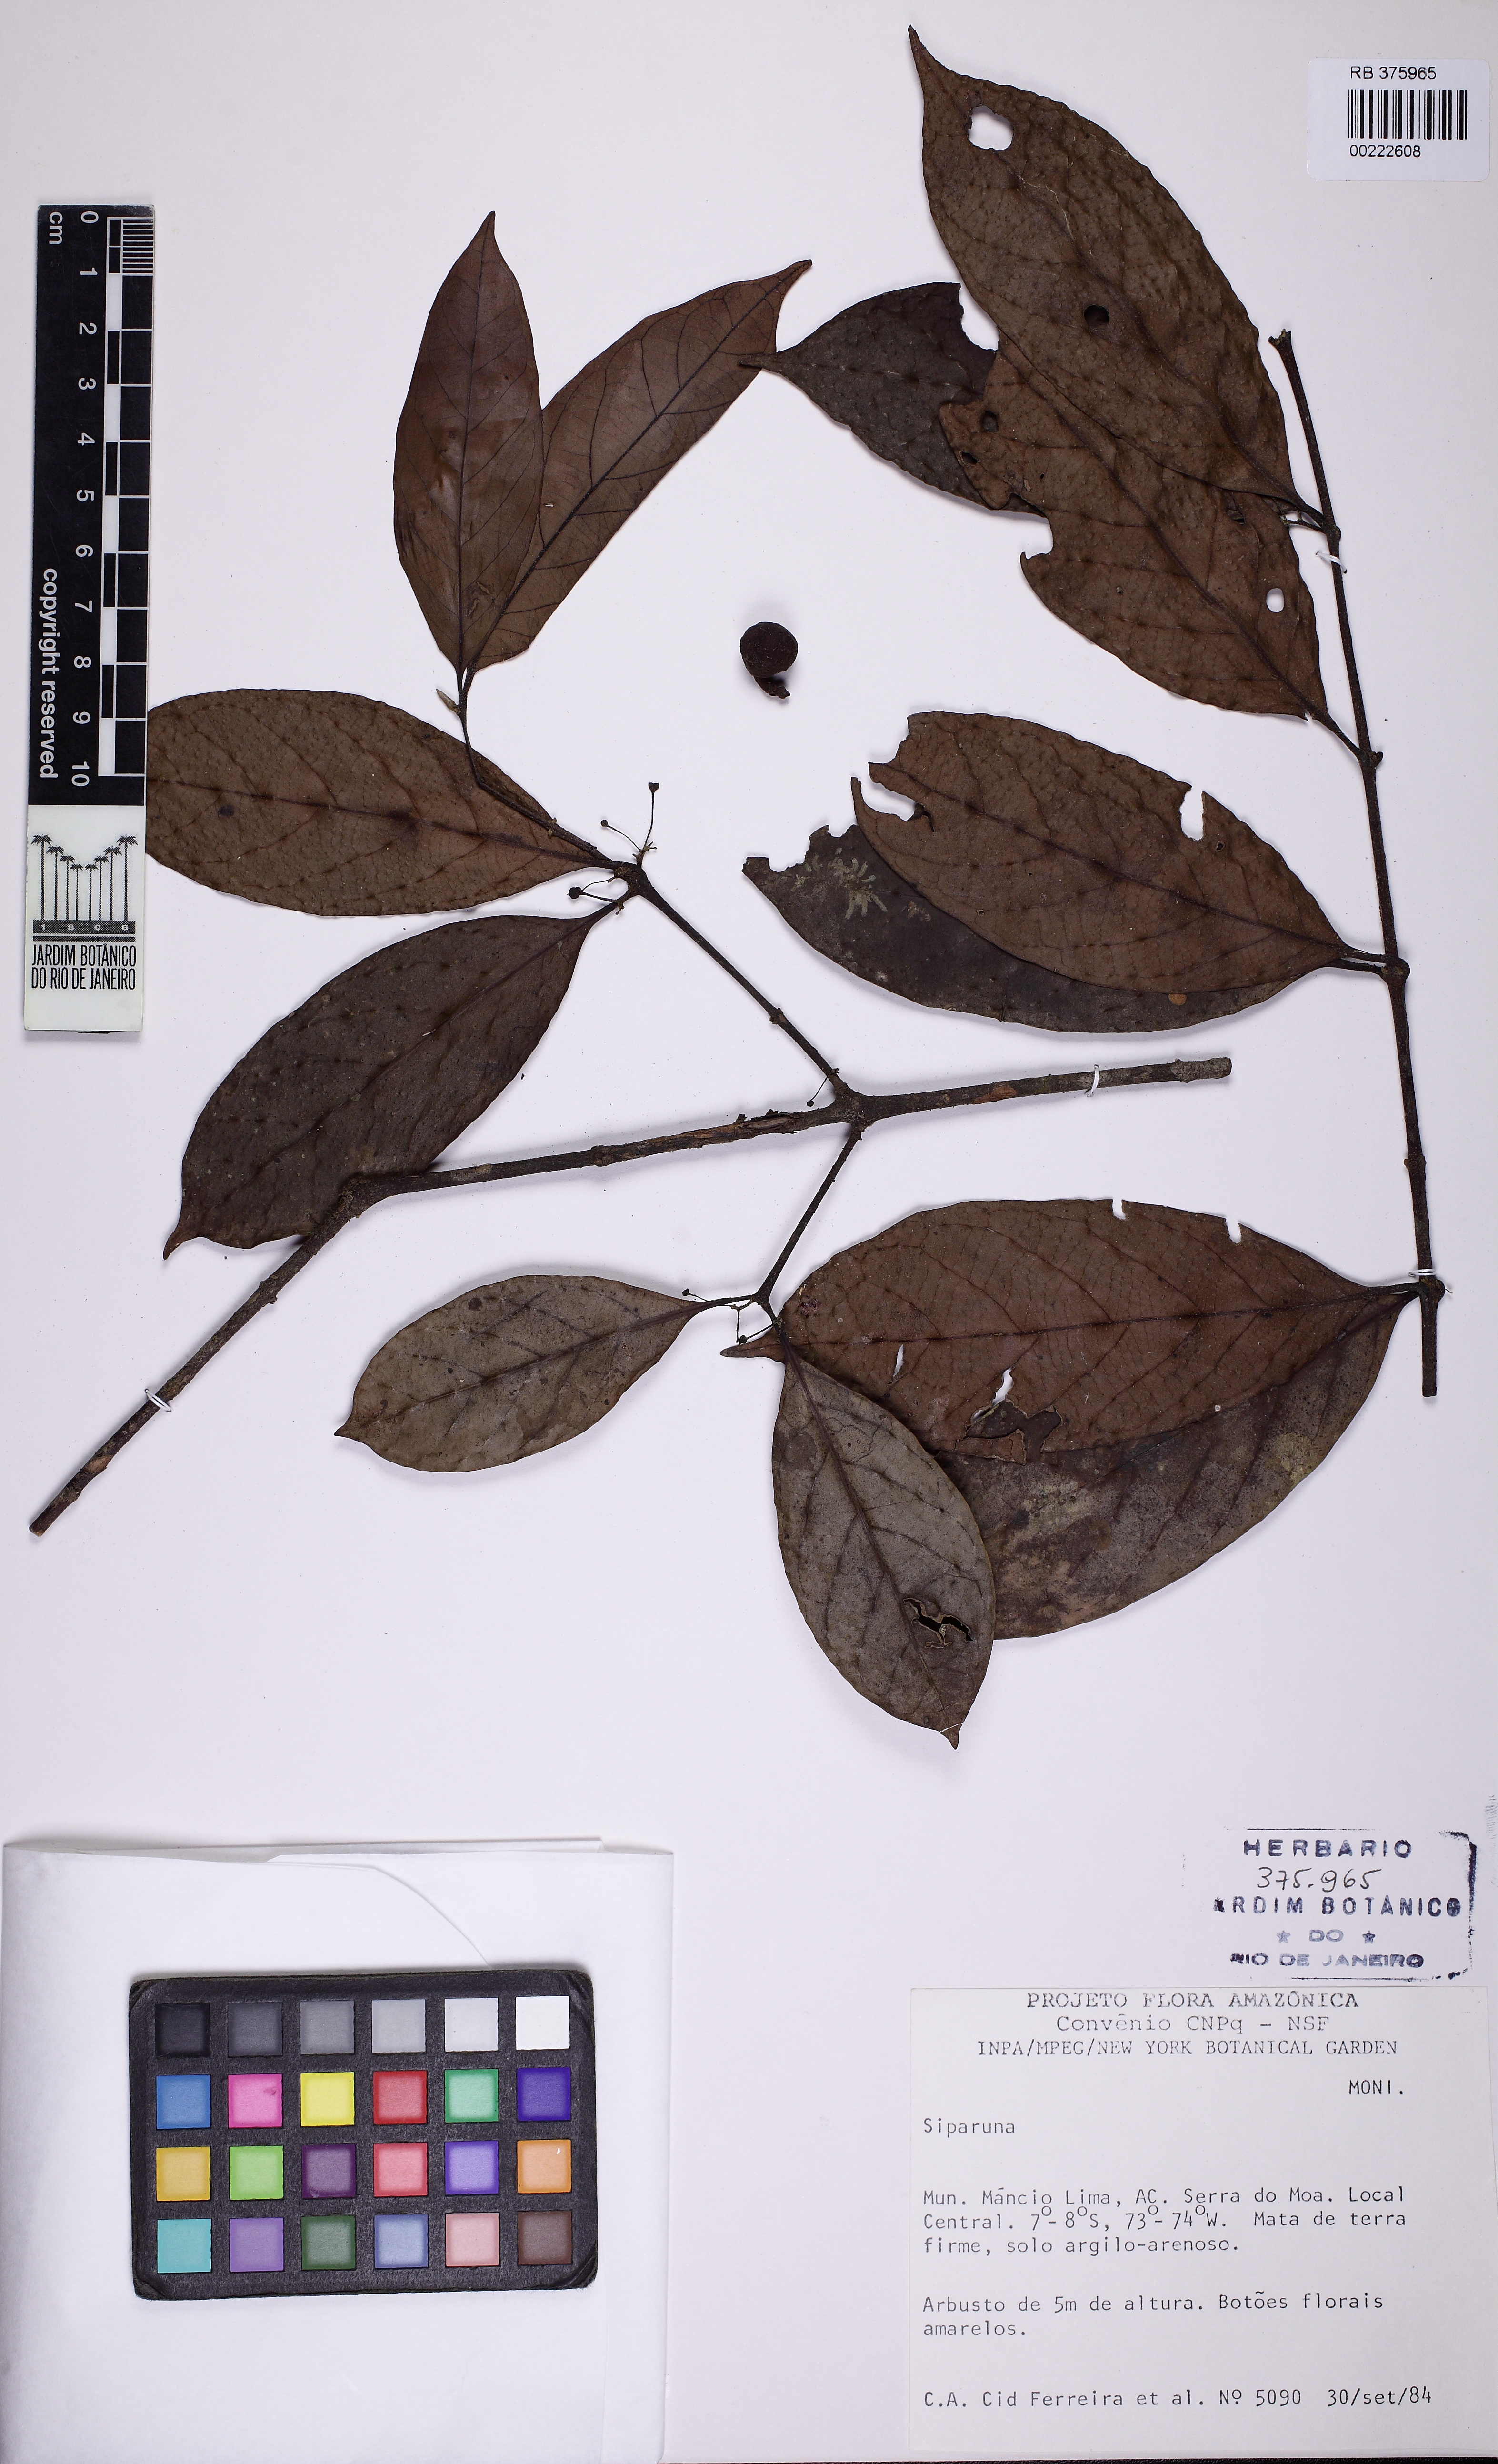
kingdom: Plantae
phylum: Tracheophyta
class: Magnoliopsida
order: Laurales
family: Siparunaceae
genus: Siparuna
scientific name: Siparuna cristata
